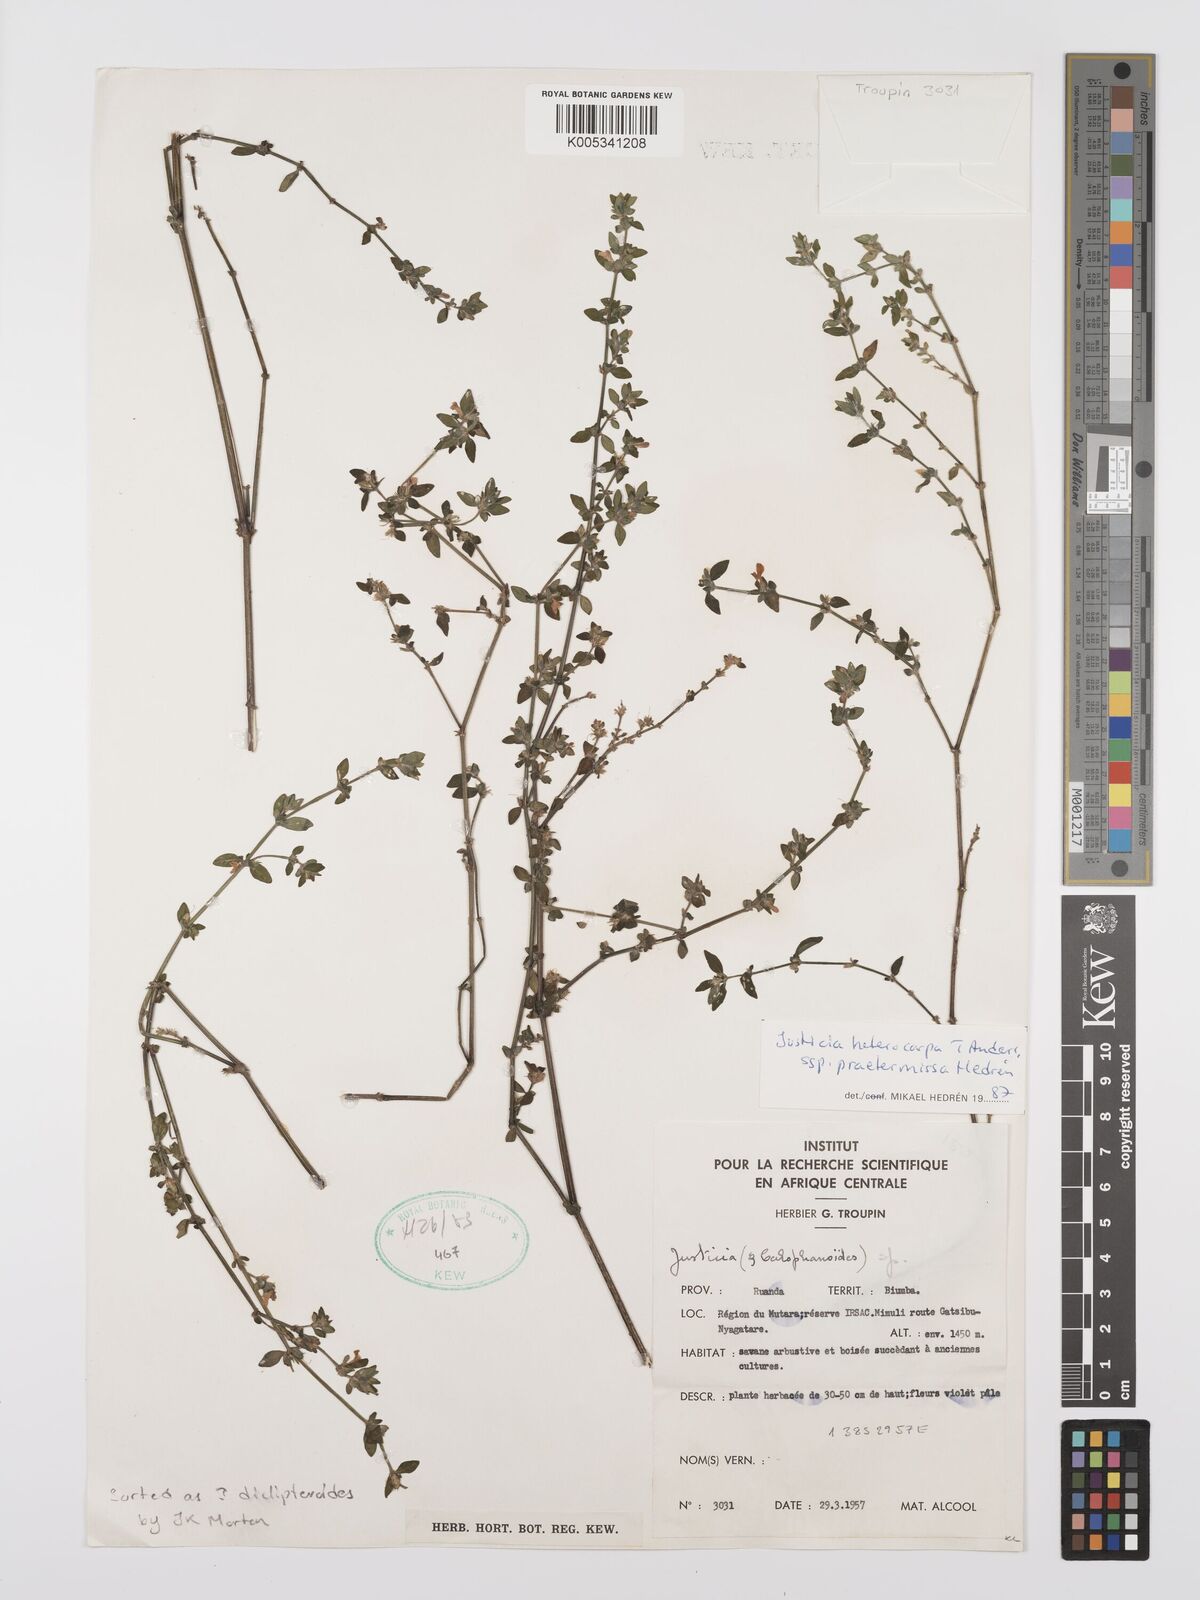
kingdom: Plantae
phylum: Tracheophyta
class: Magnoliopsida
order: Lamiales
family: Acanthaceae
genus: Justicia
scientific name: Justicia heterocarpa
